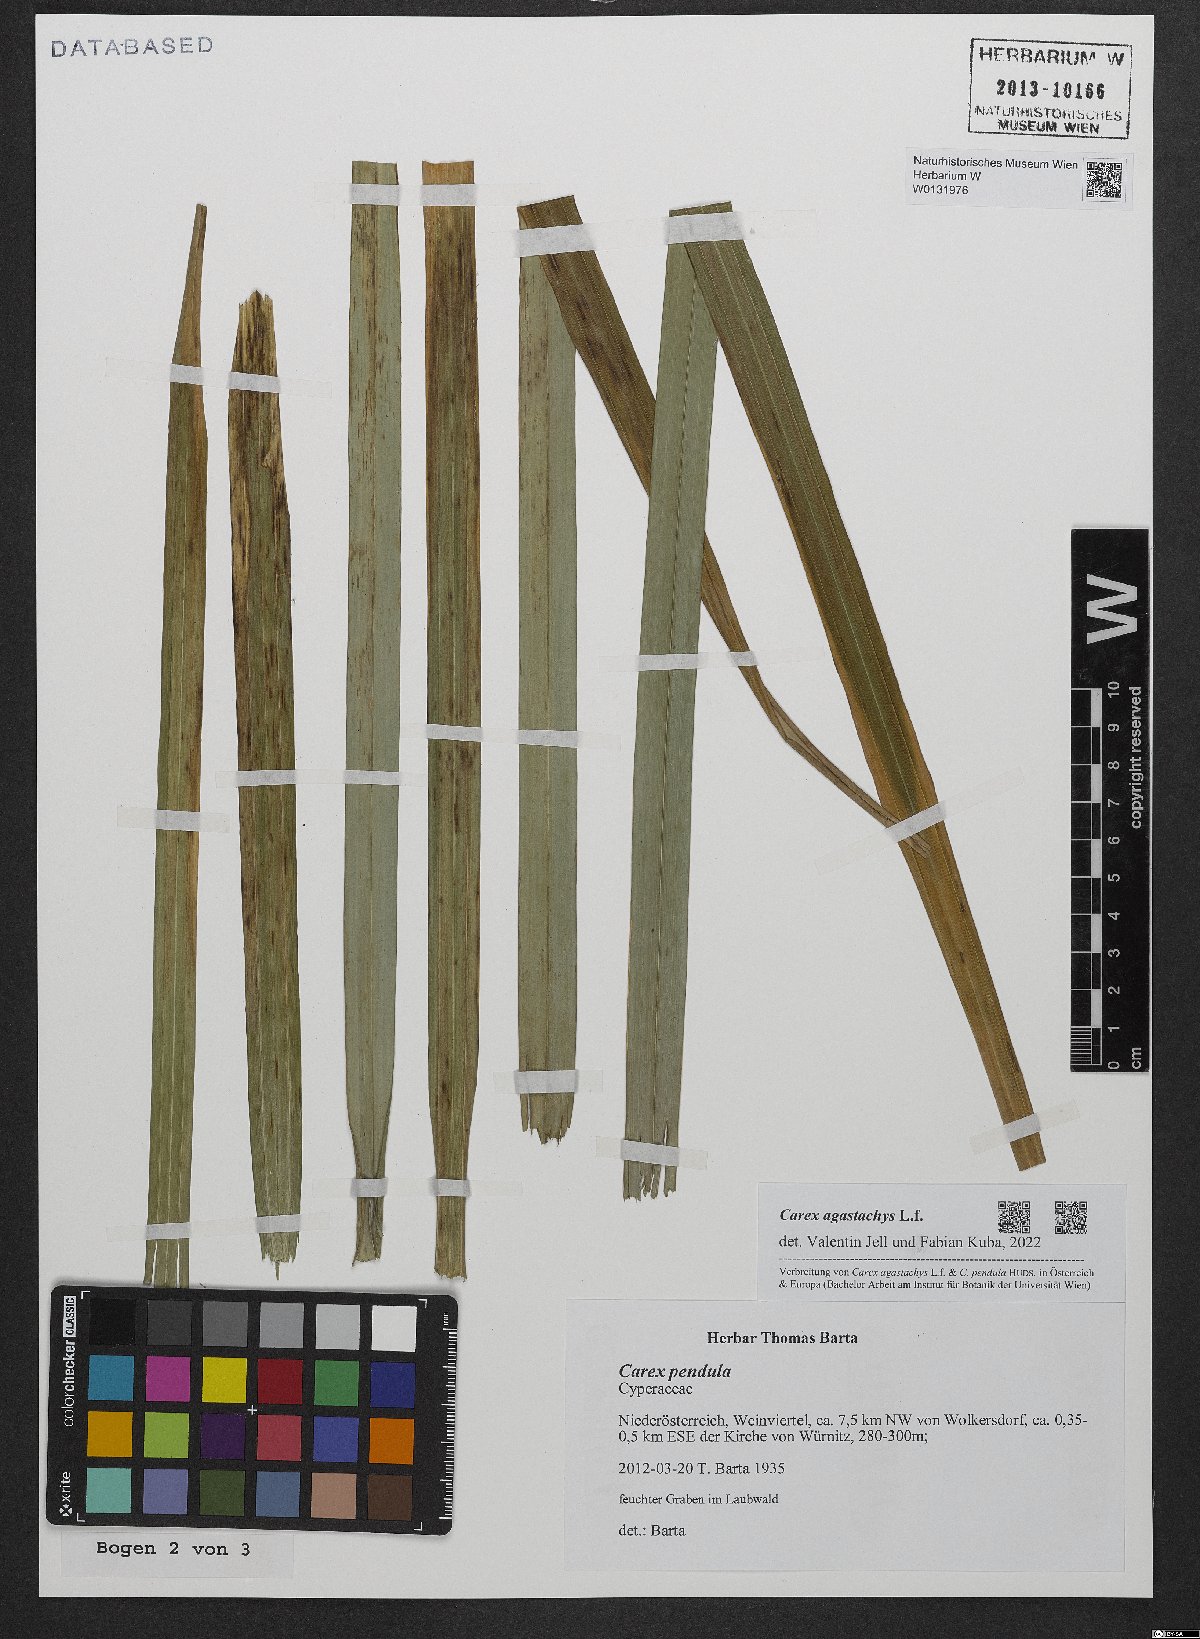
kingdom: Plantae
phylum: Tracheophyta
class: Liliopsida
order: Poales
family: Cyperaceae
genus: Carex
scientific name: Carex agastachys
